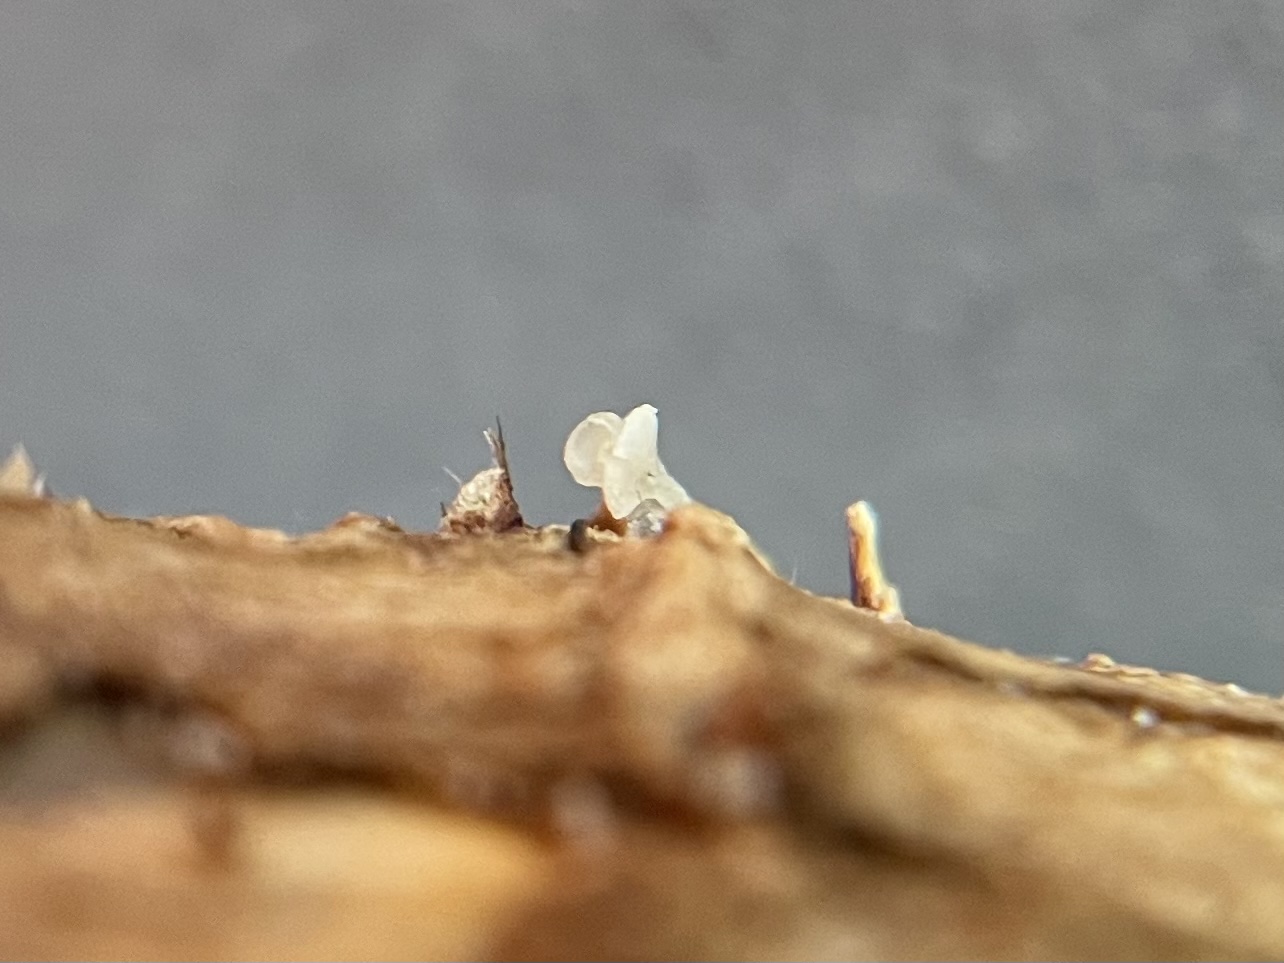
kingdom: Fungi
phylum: Basidiomycota
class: Agaricomycetes
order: Agaricales
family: Marasmiaceae
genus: Calyptella
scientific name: Calyptella capula
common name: hvidlig nældehue
